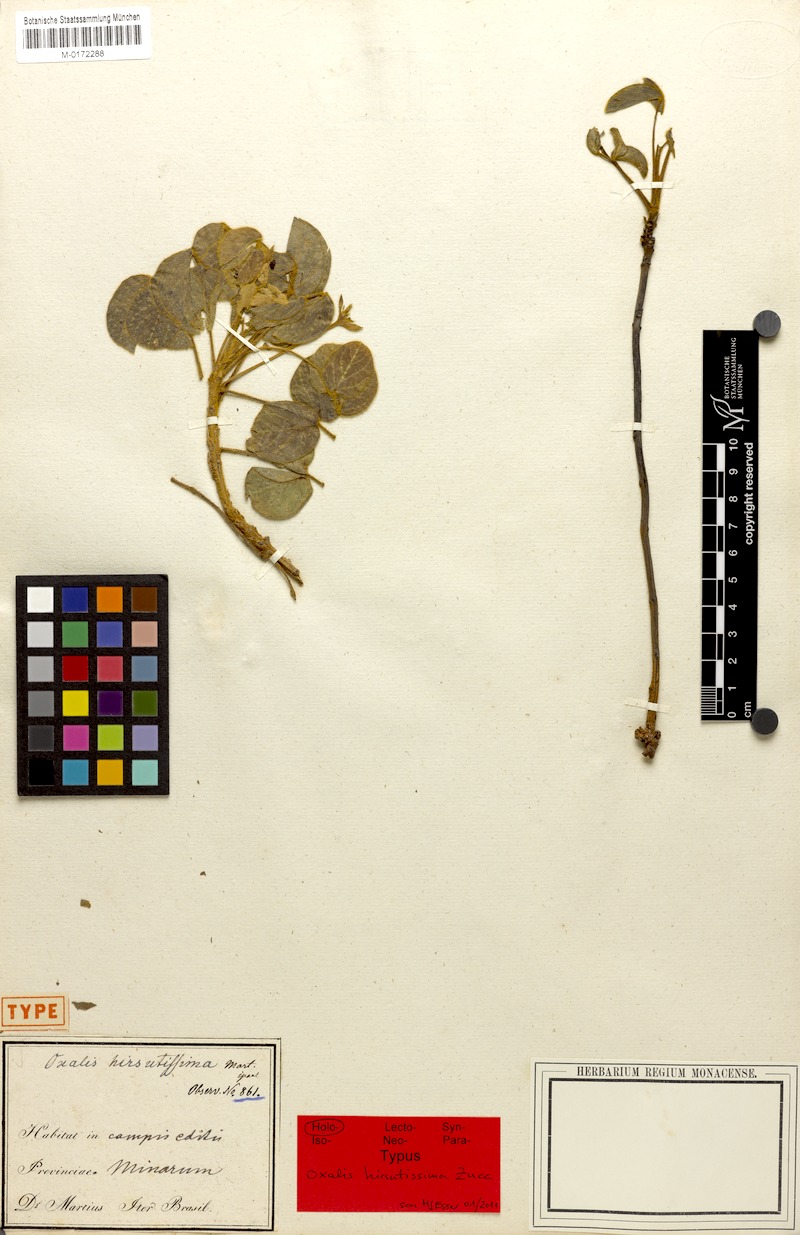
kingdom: Plantae
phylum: Tracheophyta
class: Magnoliopsida
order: Oxalidales
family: Oxalidaceae
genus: Oxalis
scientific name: Oxalis hirsutissima
